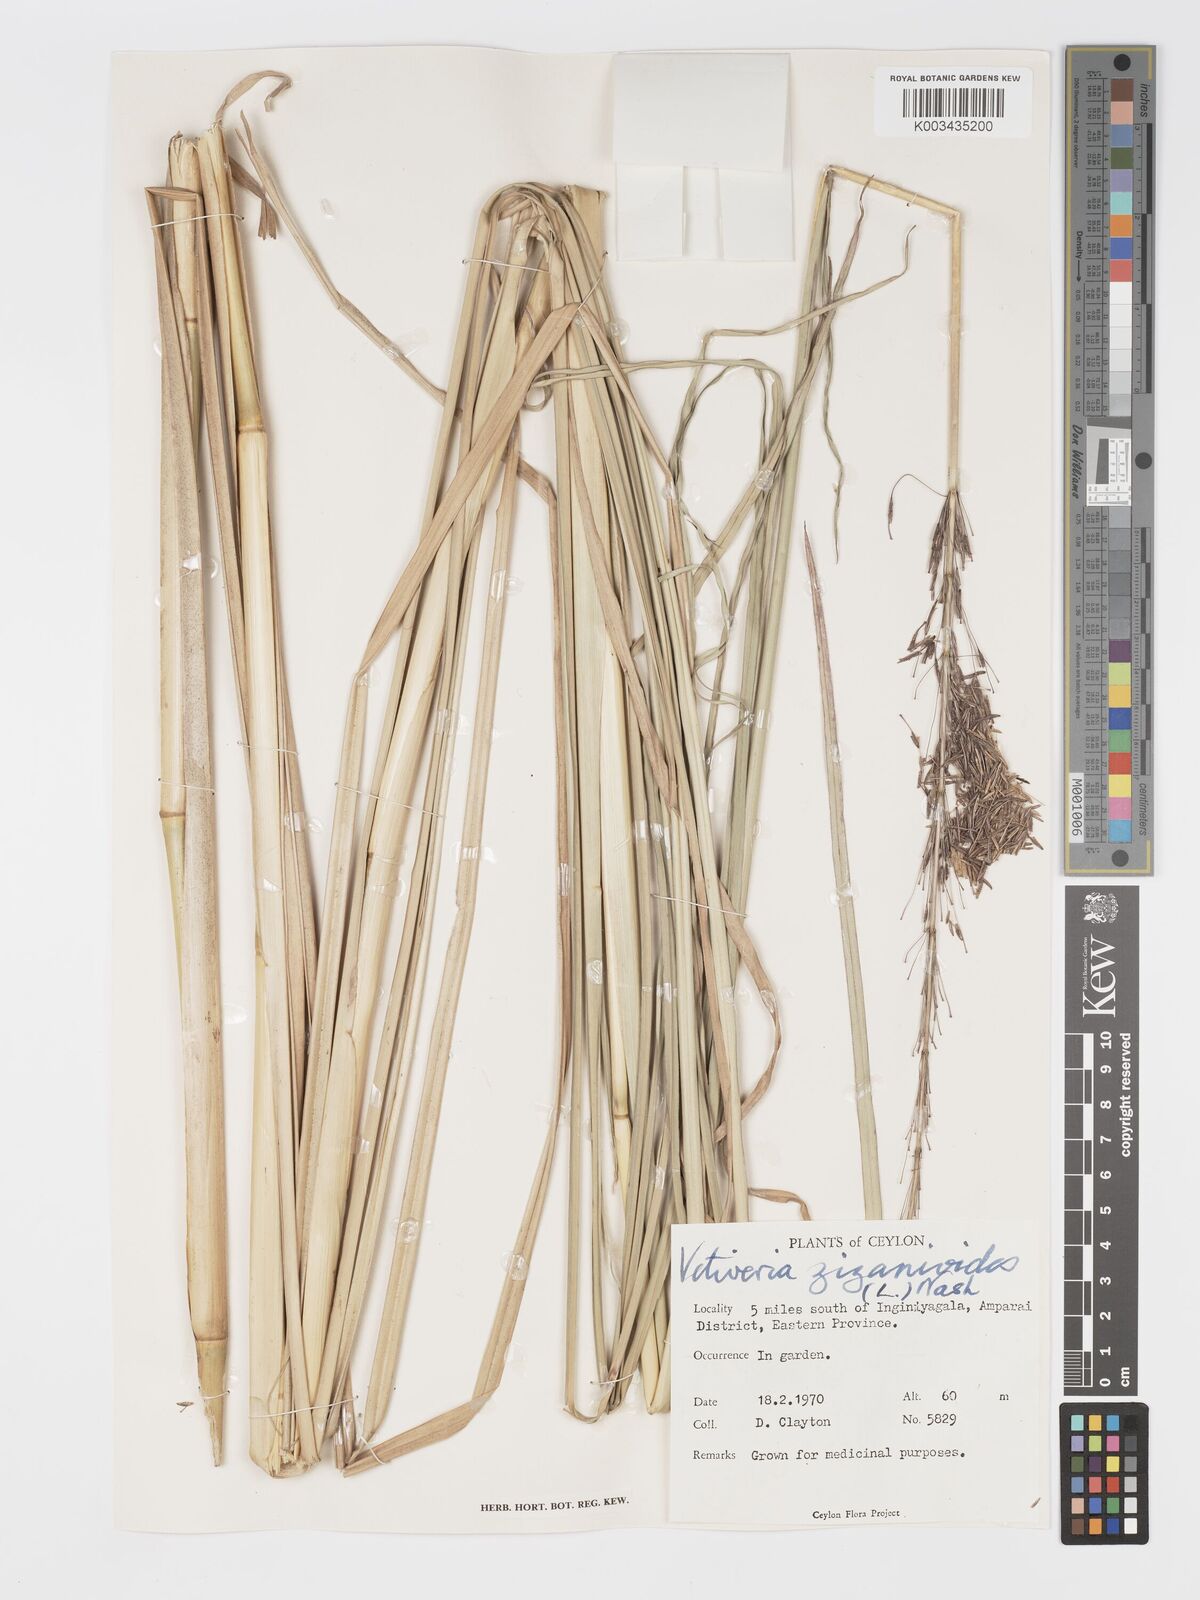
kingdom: Plantae
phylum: Tracheophyta
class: Liliopsida
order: Poales
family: Poaceae
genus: Chrysopogon
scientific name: Chrysopogon zizanioides
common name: False beardgrass
